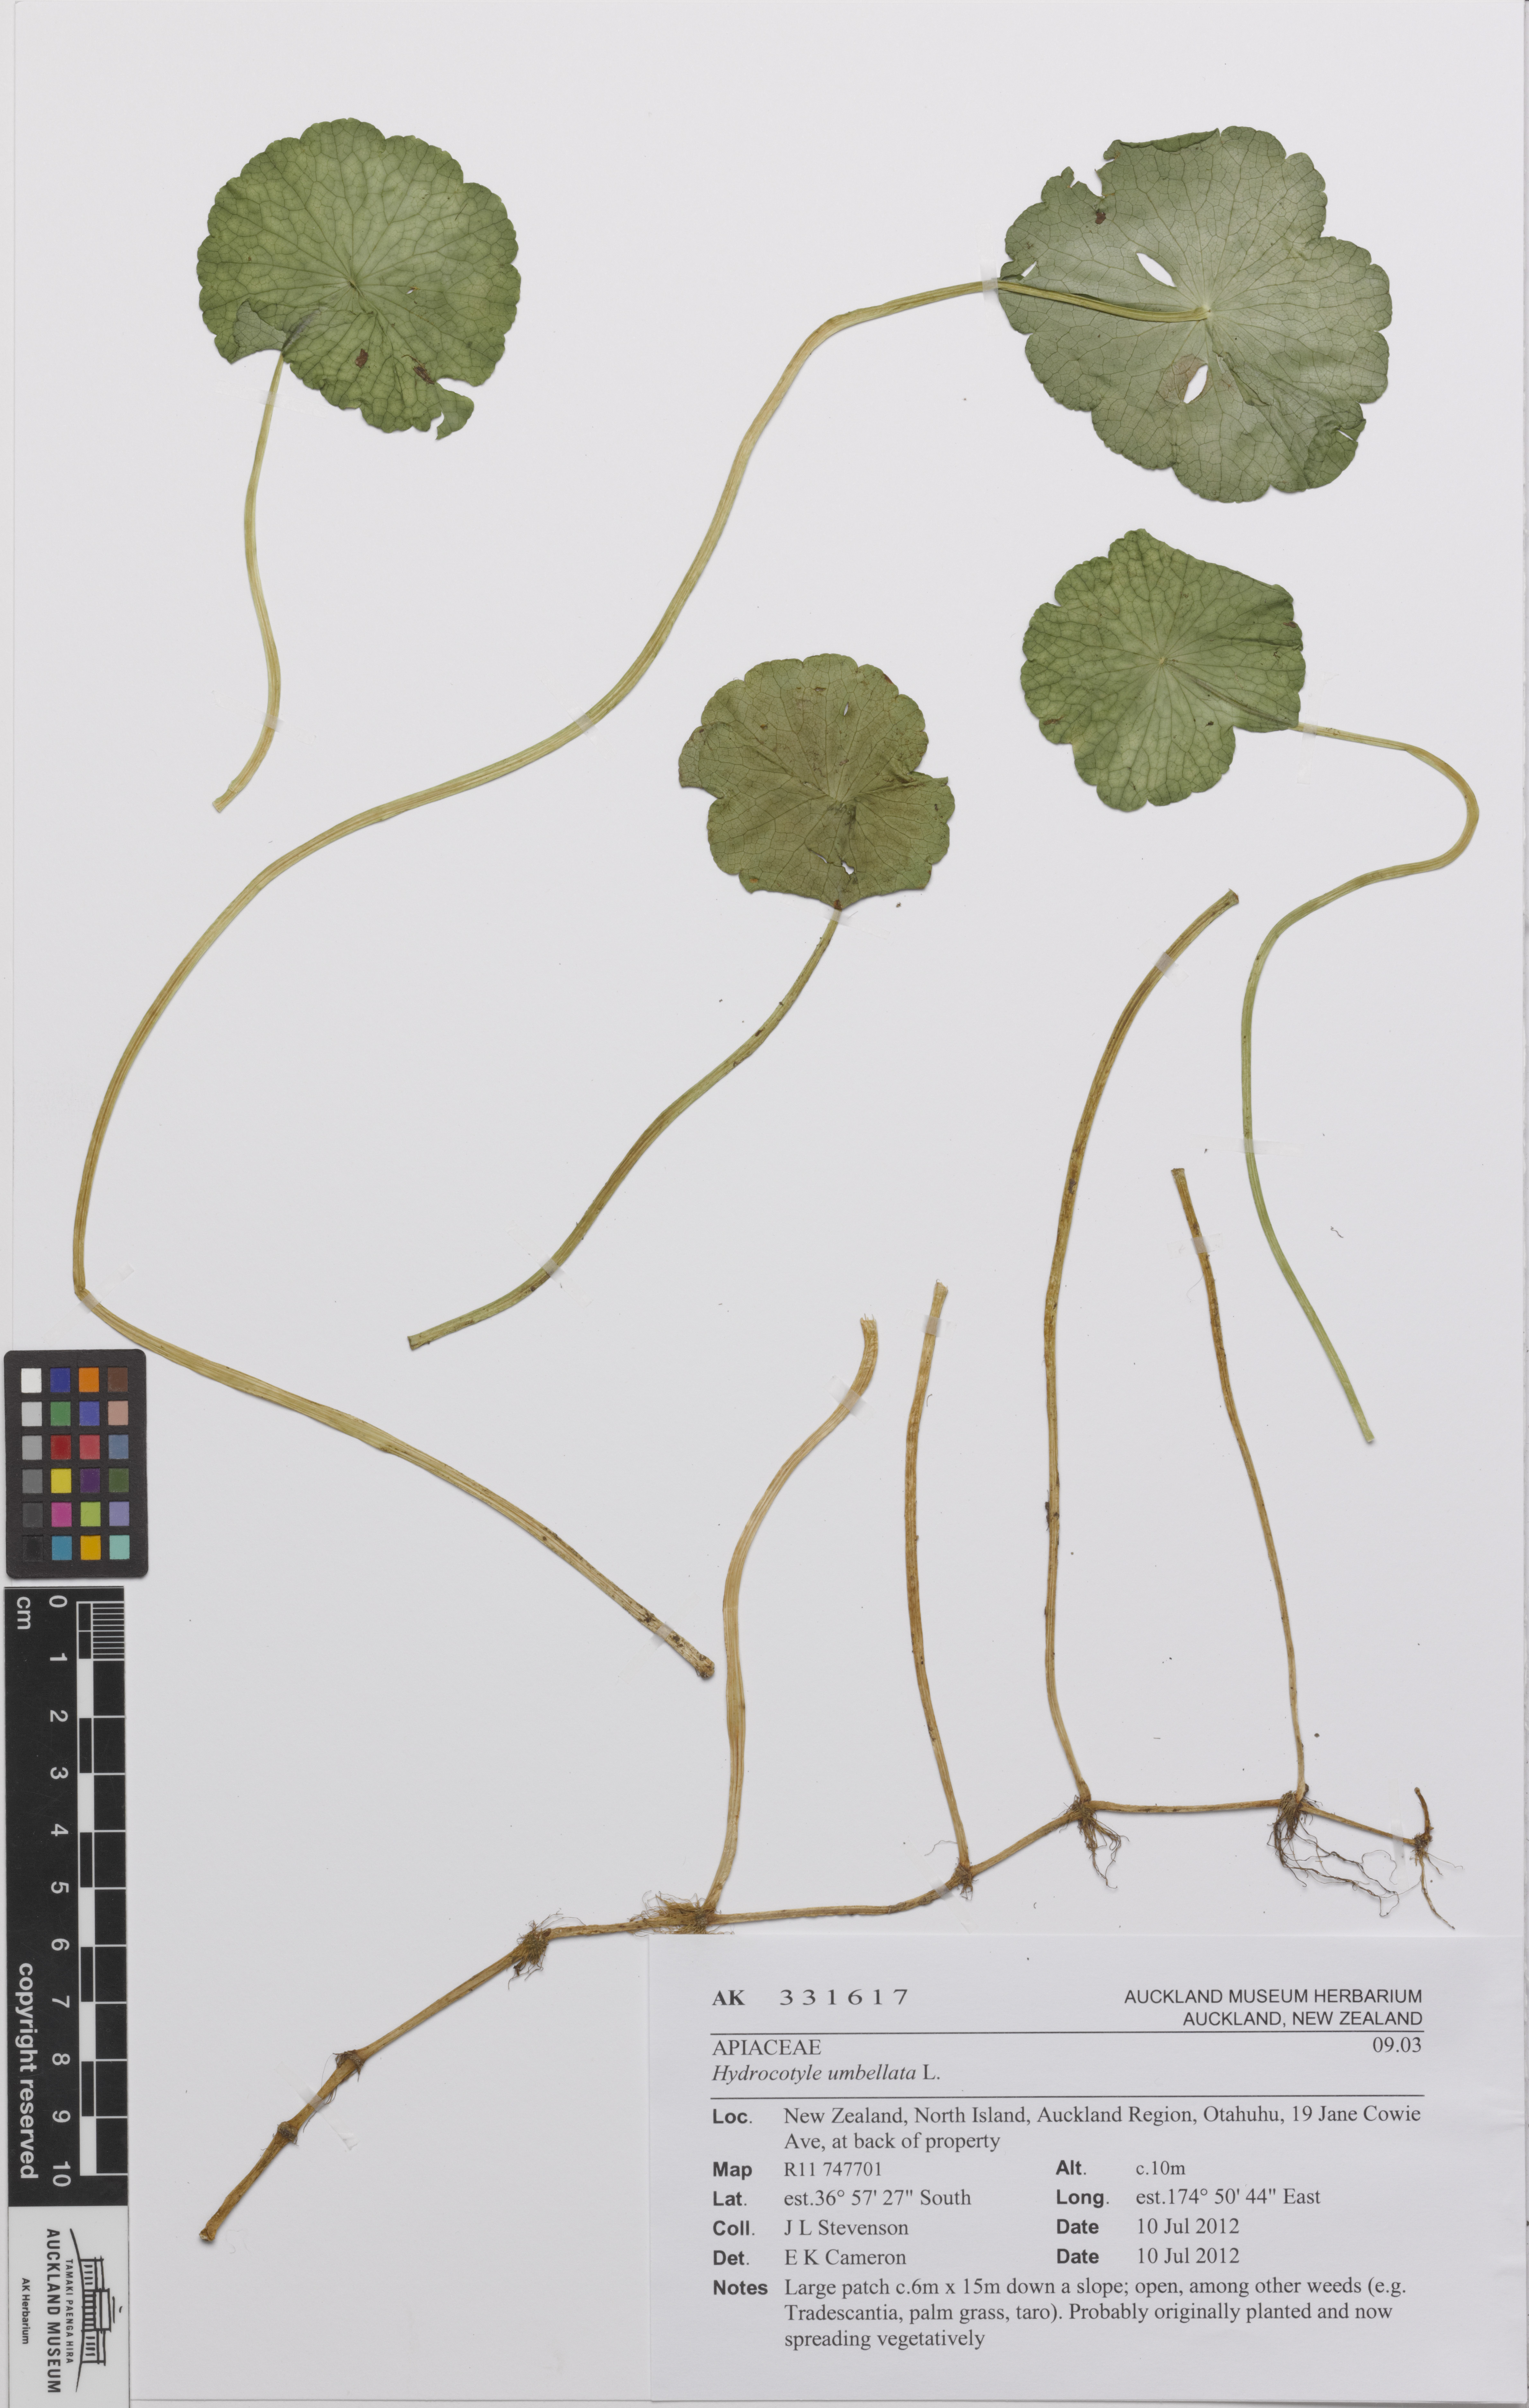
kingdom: Plantae
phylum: Tracheophyta
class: Magnoliopsida
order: Apiales
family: Araliaceae
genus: Hydrocotyle
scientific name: Hydrocotyle bonariensis
